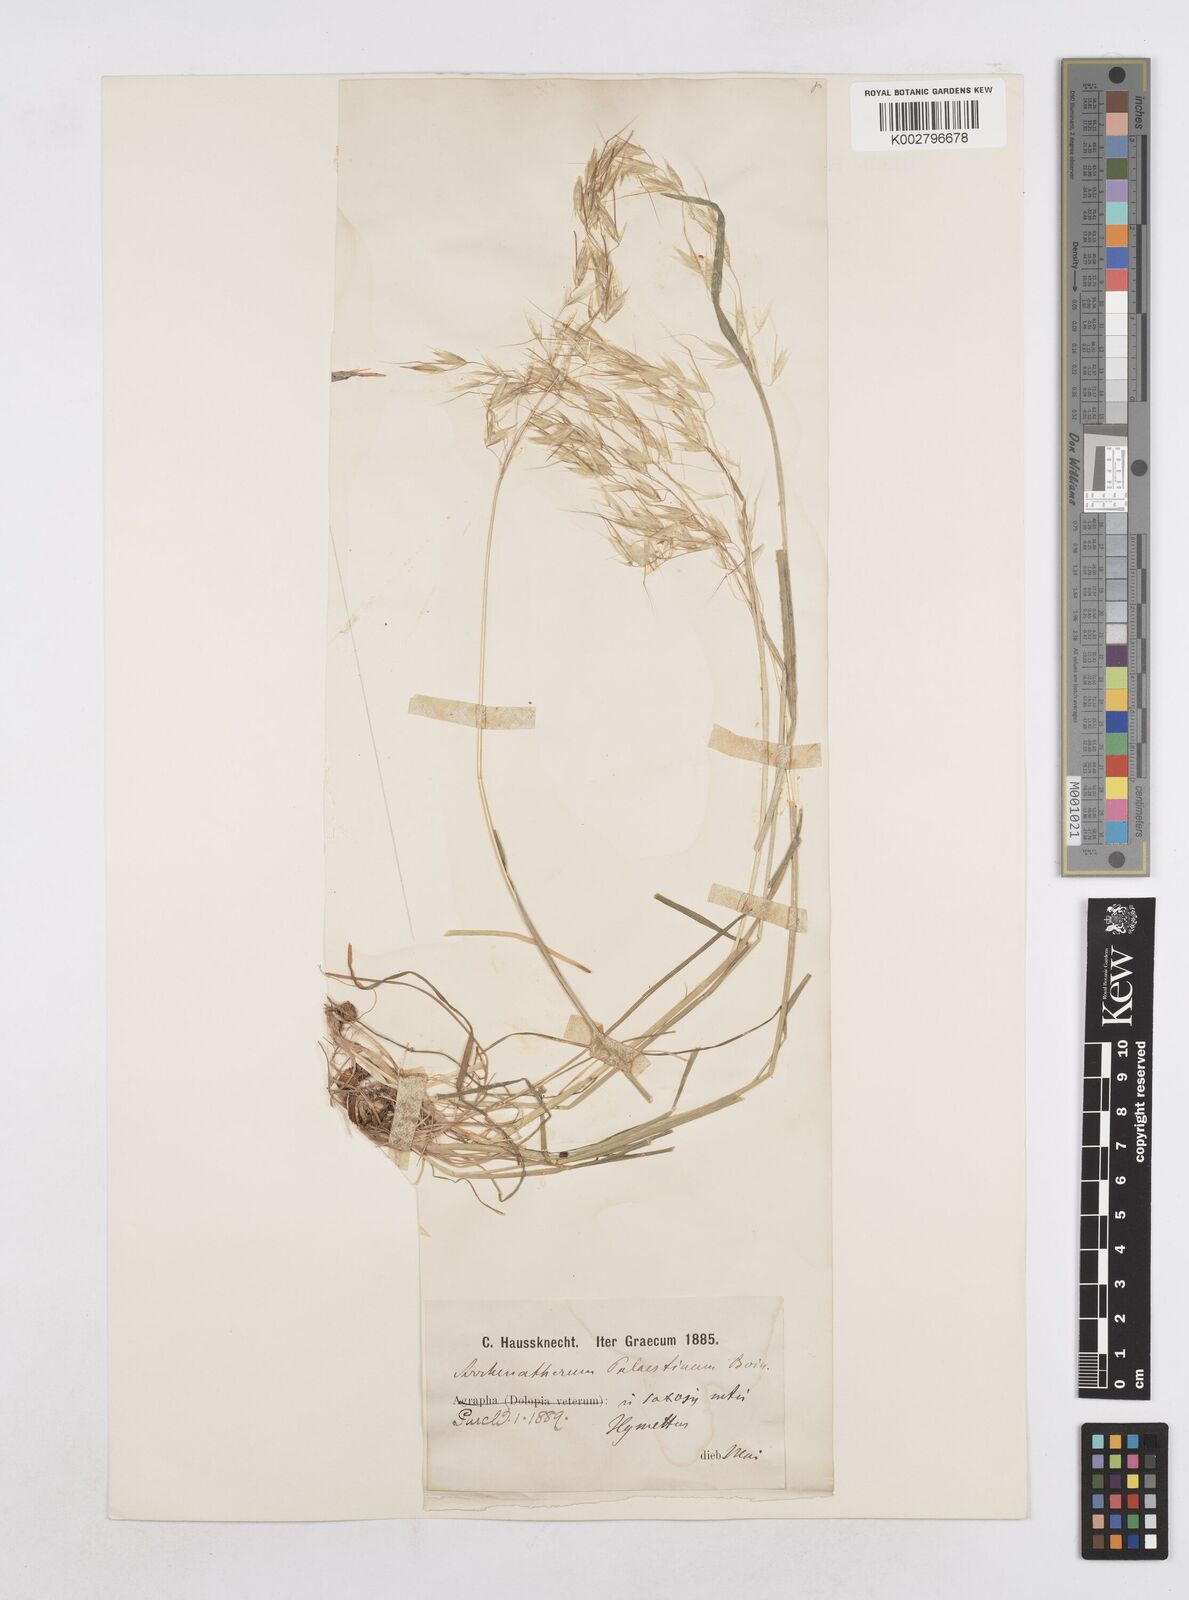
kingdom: Plantae
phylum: Tracheophyta
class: Liliopsida
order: Poales
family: Poaceae
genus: Arrhenatherum
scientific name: Arrhenatherum palaestinum
